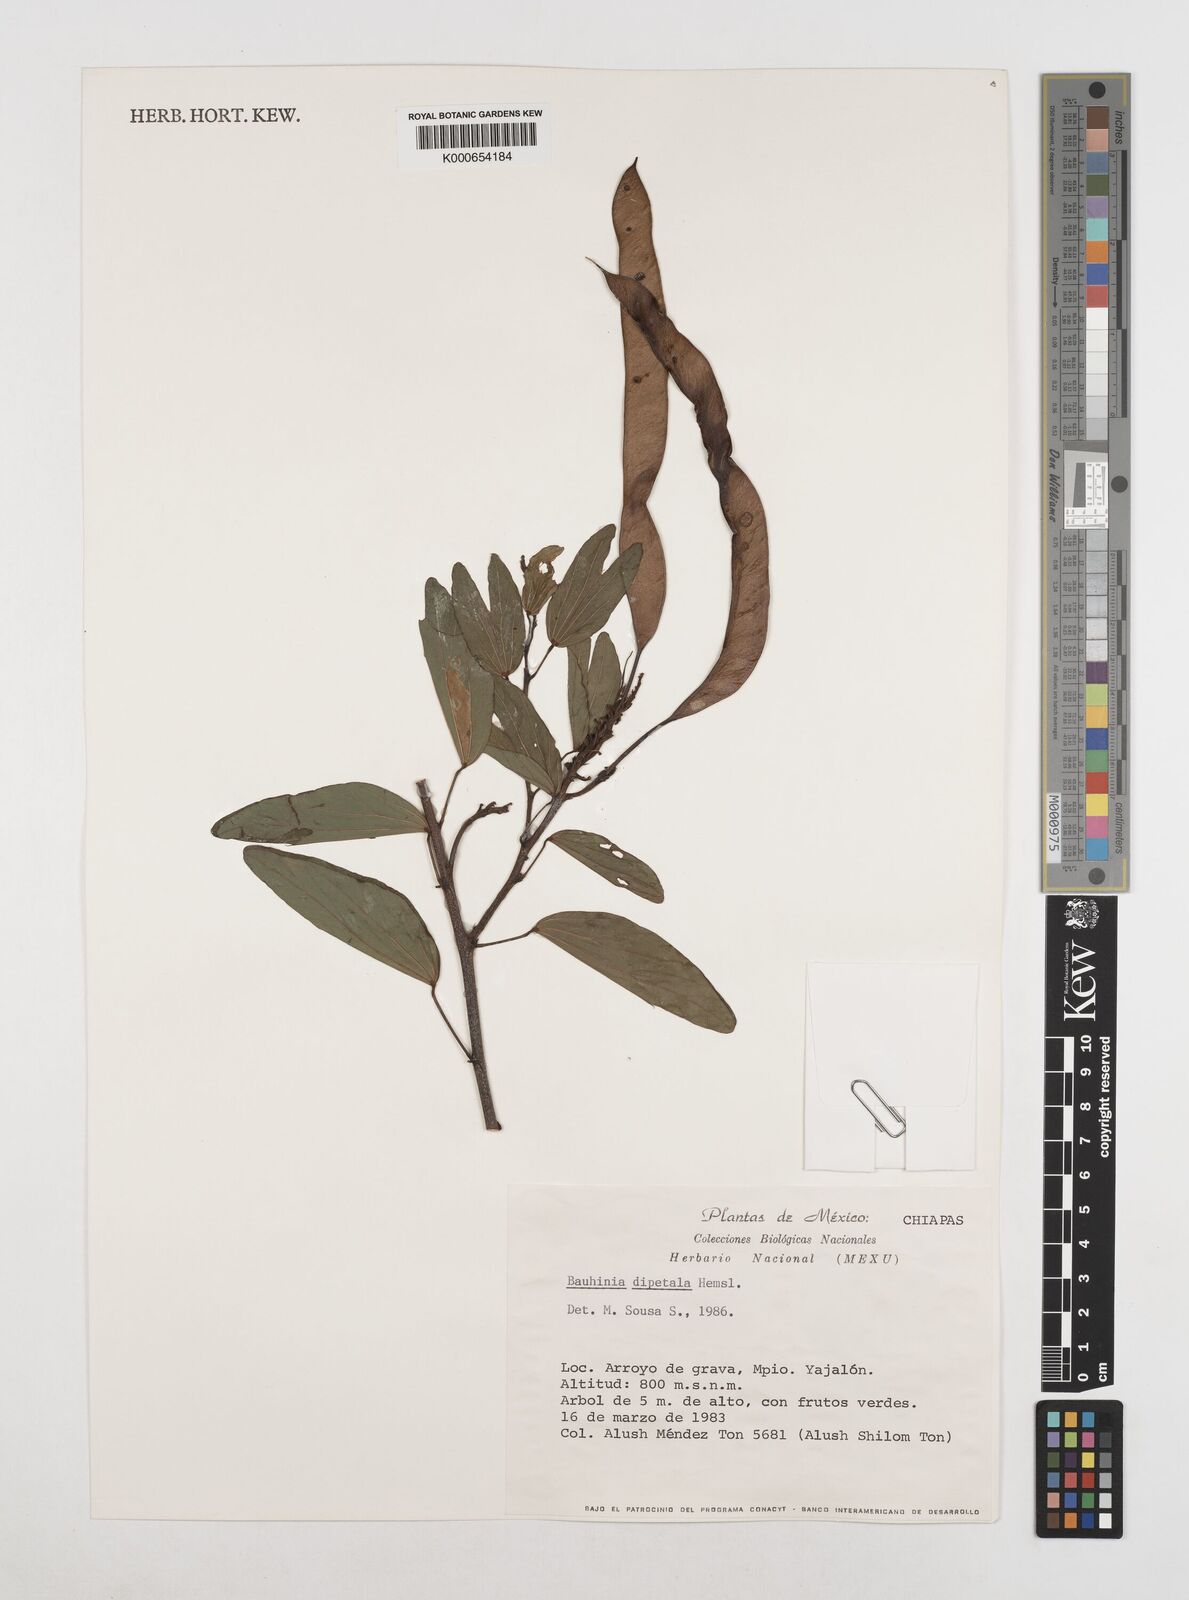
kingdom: Plantae
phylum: Tracheophyta
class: Magnoliopsida
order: Fabales
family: Fabaceae
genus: Bauhinia
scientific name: Bauhinia dipetala
